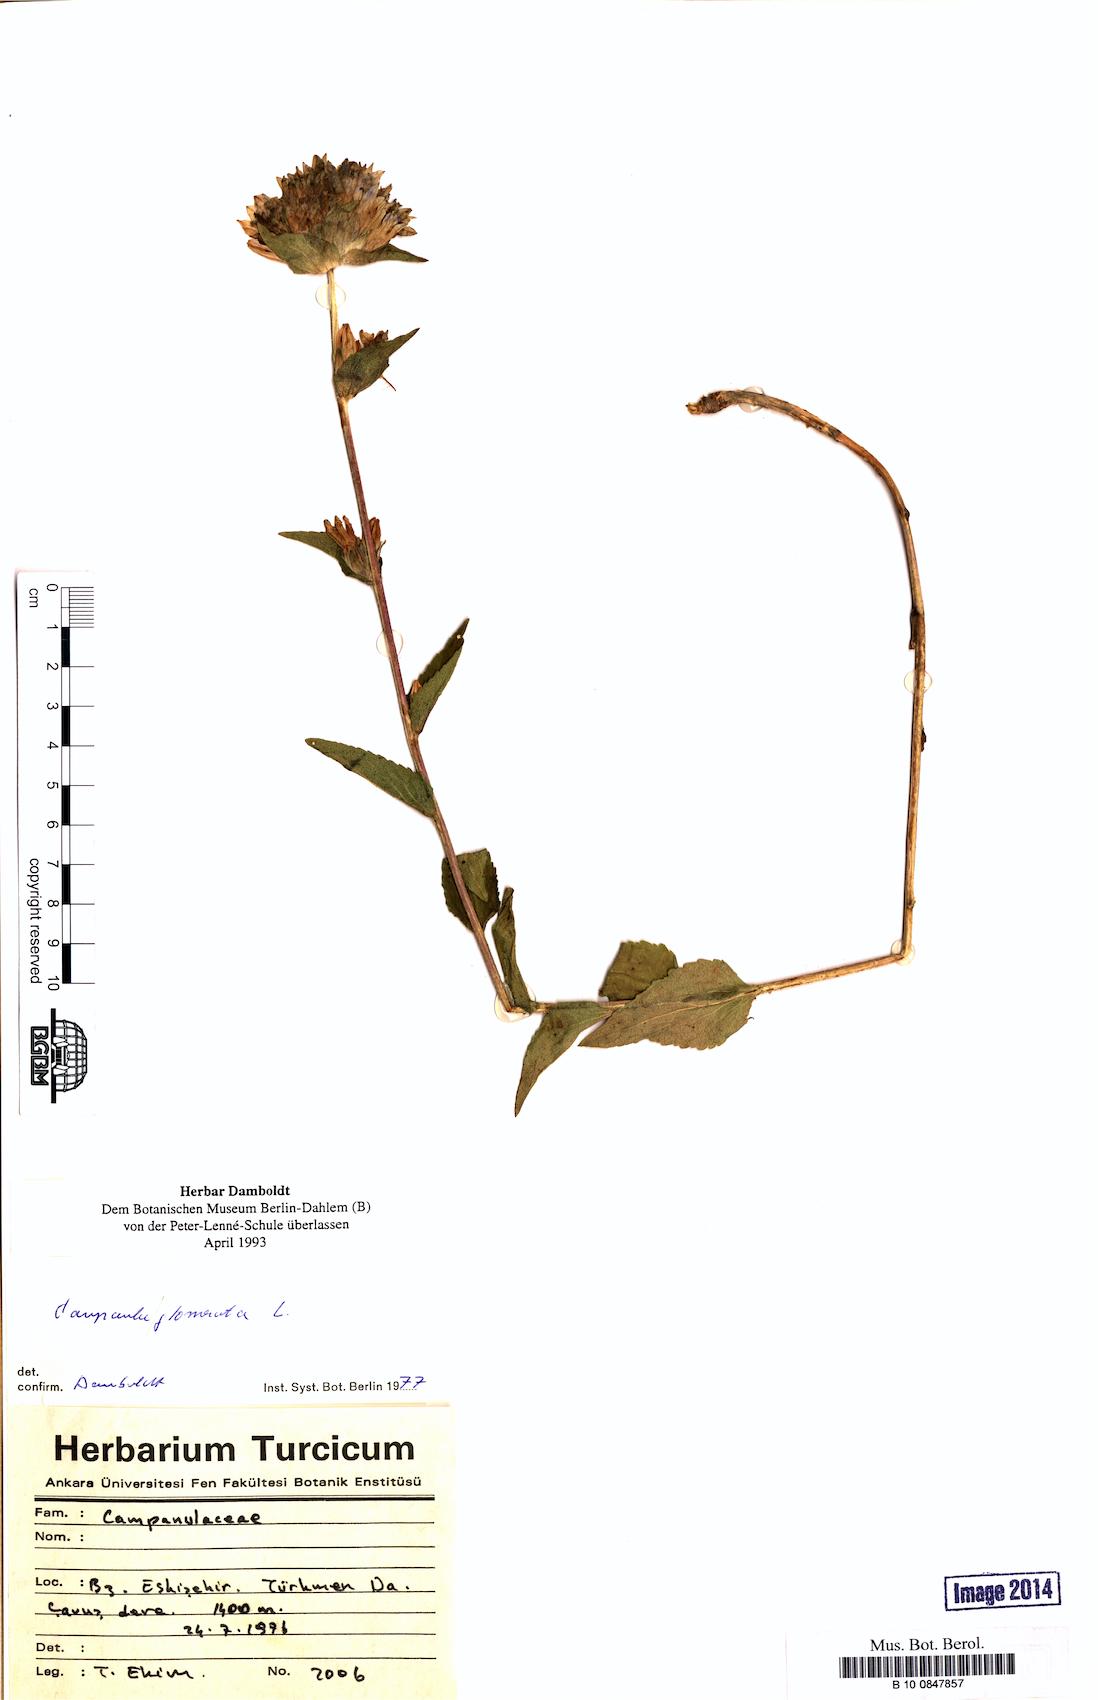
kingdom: Plantae
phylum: Tracheophyta
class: Magnoliopsida
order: Asterales
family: Campanulaceae
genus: Campanula
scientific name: Campanula glomerata
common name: Clustered bellflower
